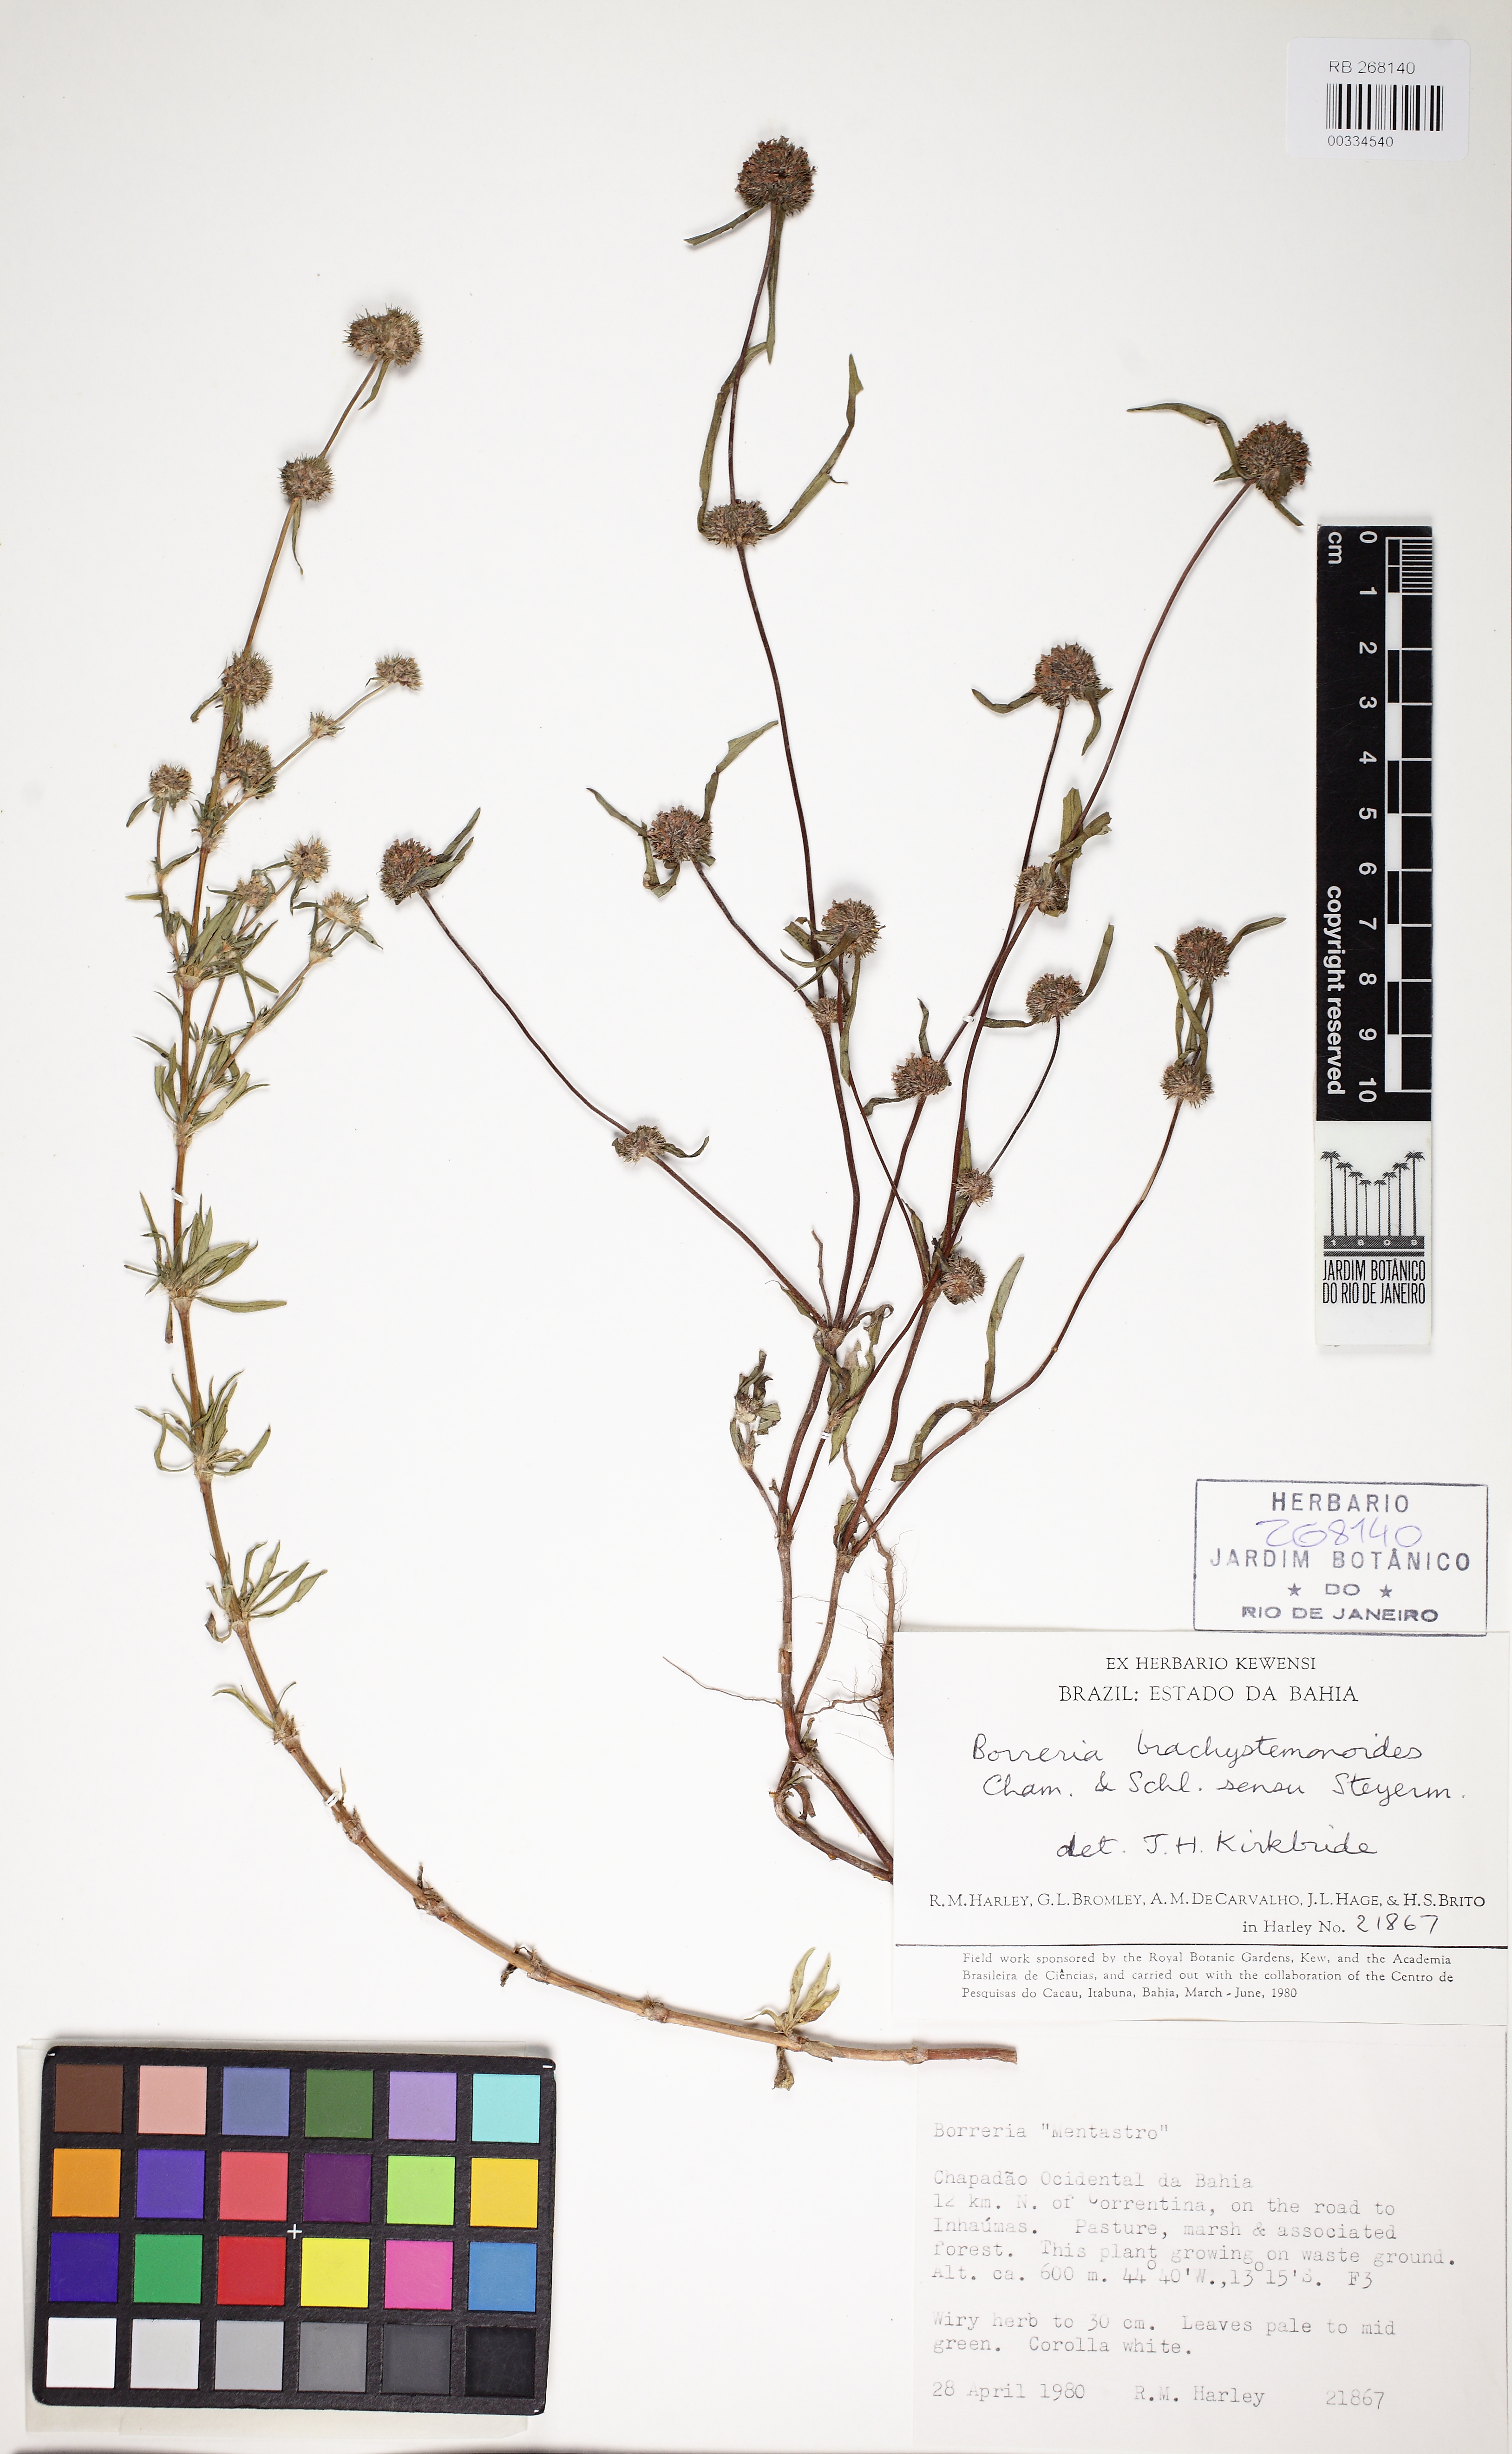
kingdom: Plantae
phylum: Tracheophyta
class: Magnoliopsida
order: Gentianales
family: Rubiaceae
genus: Diacrodon
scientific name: Diacrodon compressus
